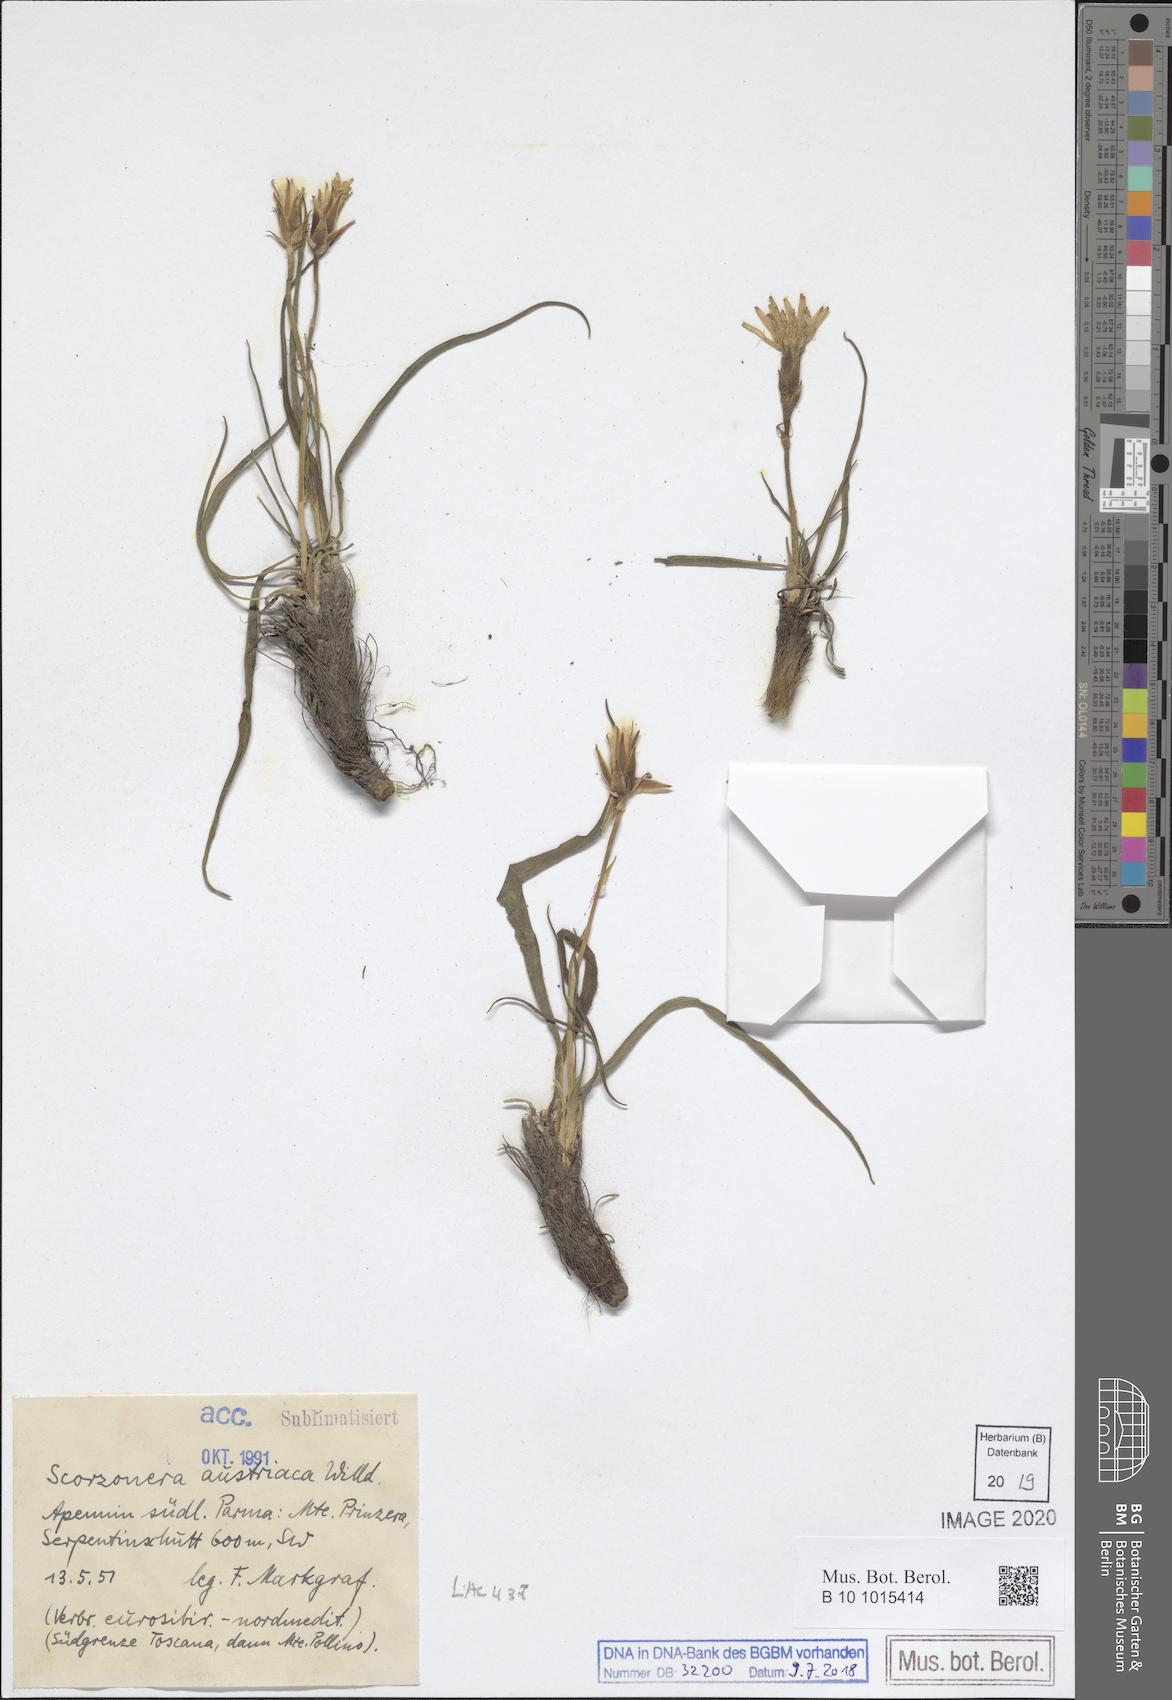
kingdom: Plantae
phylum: Tracheophyta
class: Magnoliopsida
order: Asterales
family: Asteraceae
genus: Takhtajaniantha
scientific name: Takhtajaniantha austriaca
